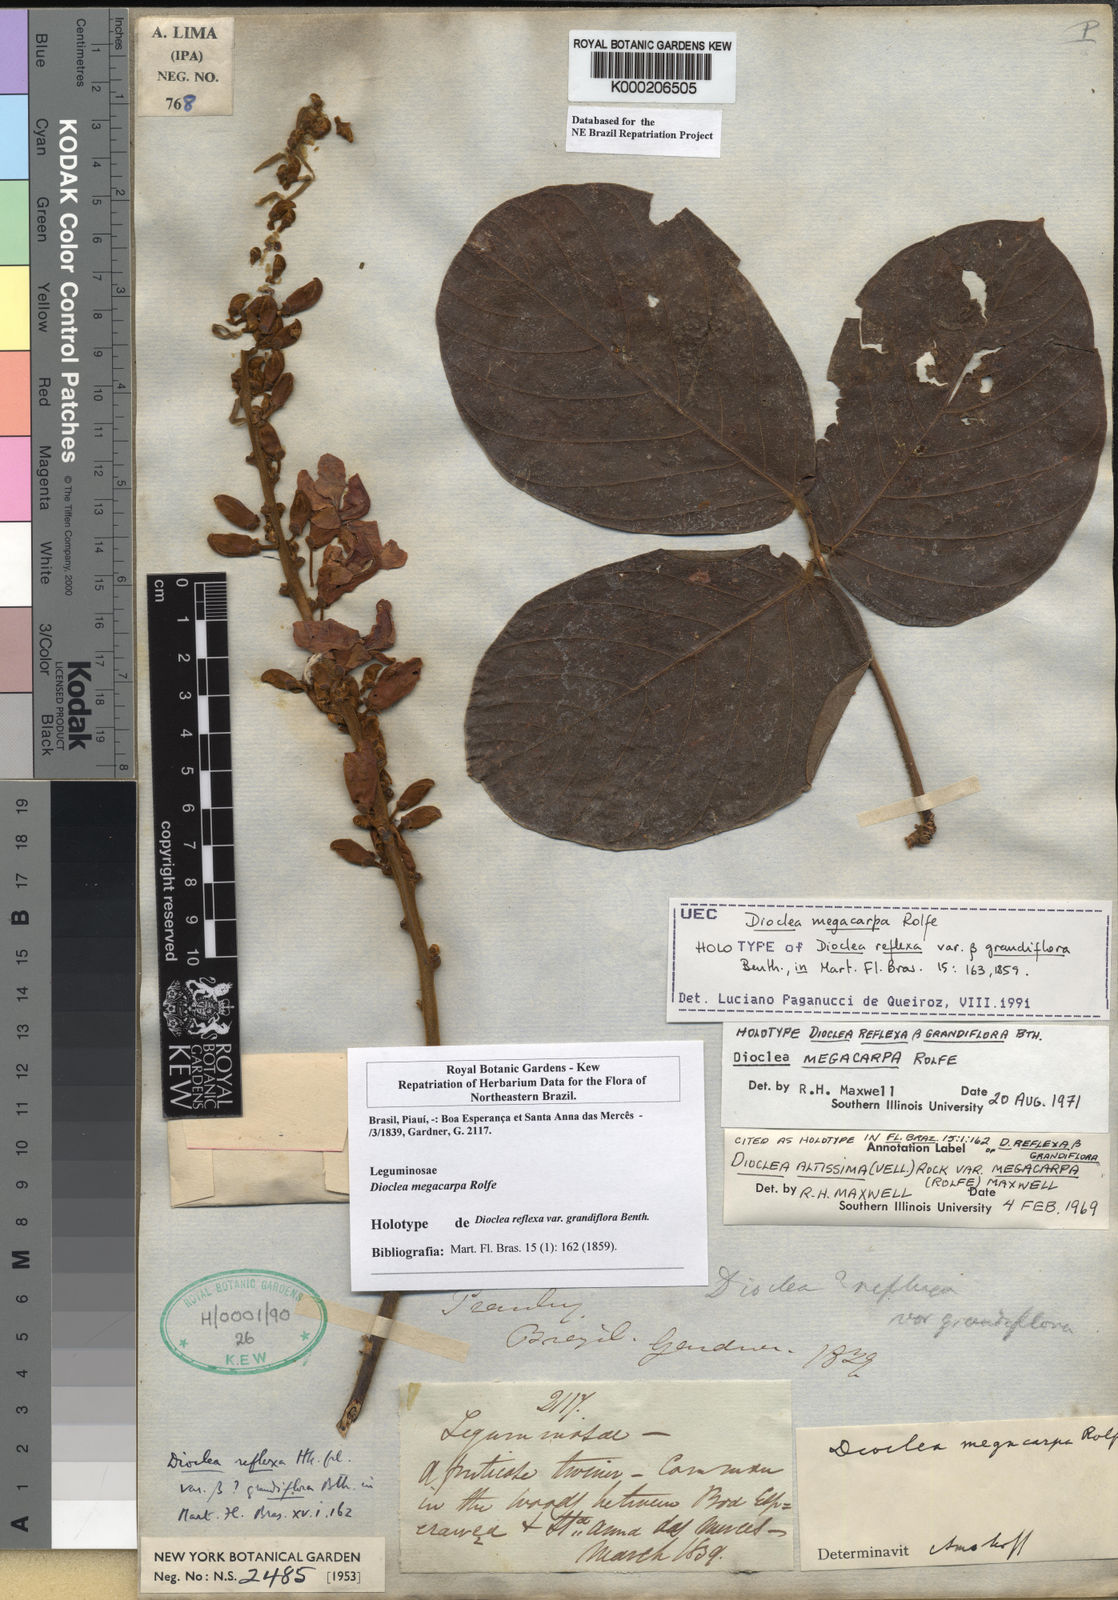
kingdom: Plantae
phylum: Tracheophyta
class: Magnoliopsida
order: Fabales
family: Fabaceae
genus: Macropsychanthus
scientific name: Macropsychanthus megacarpus
